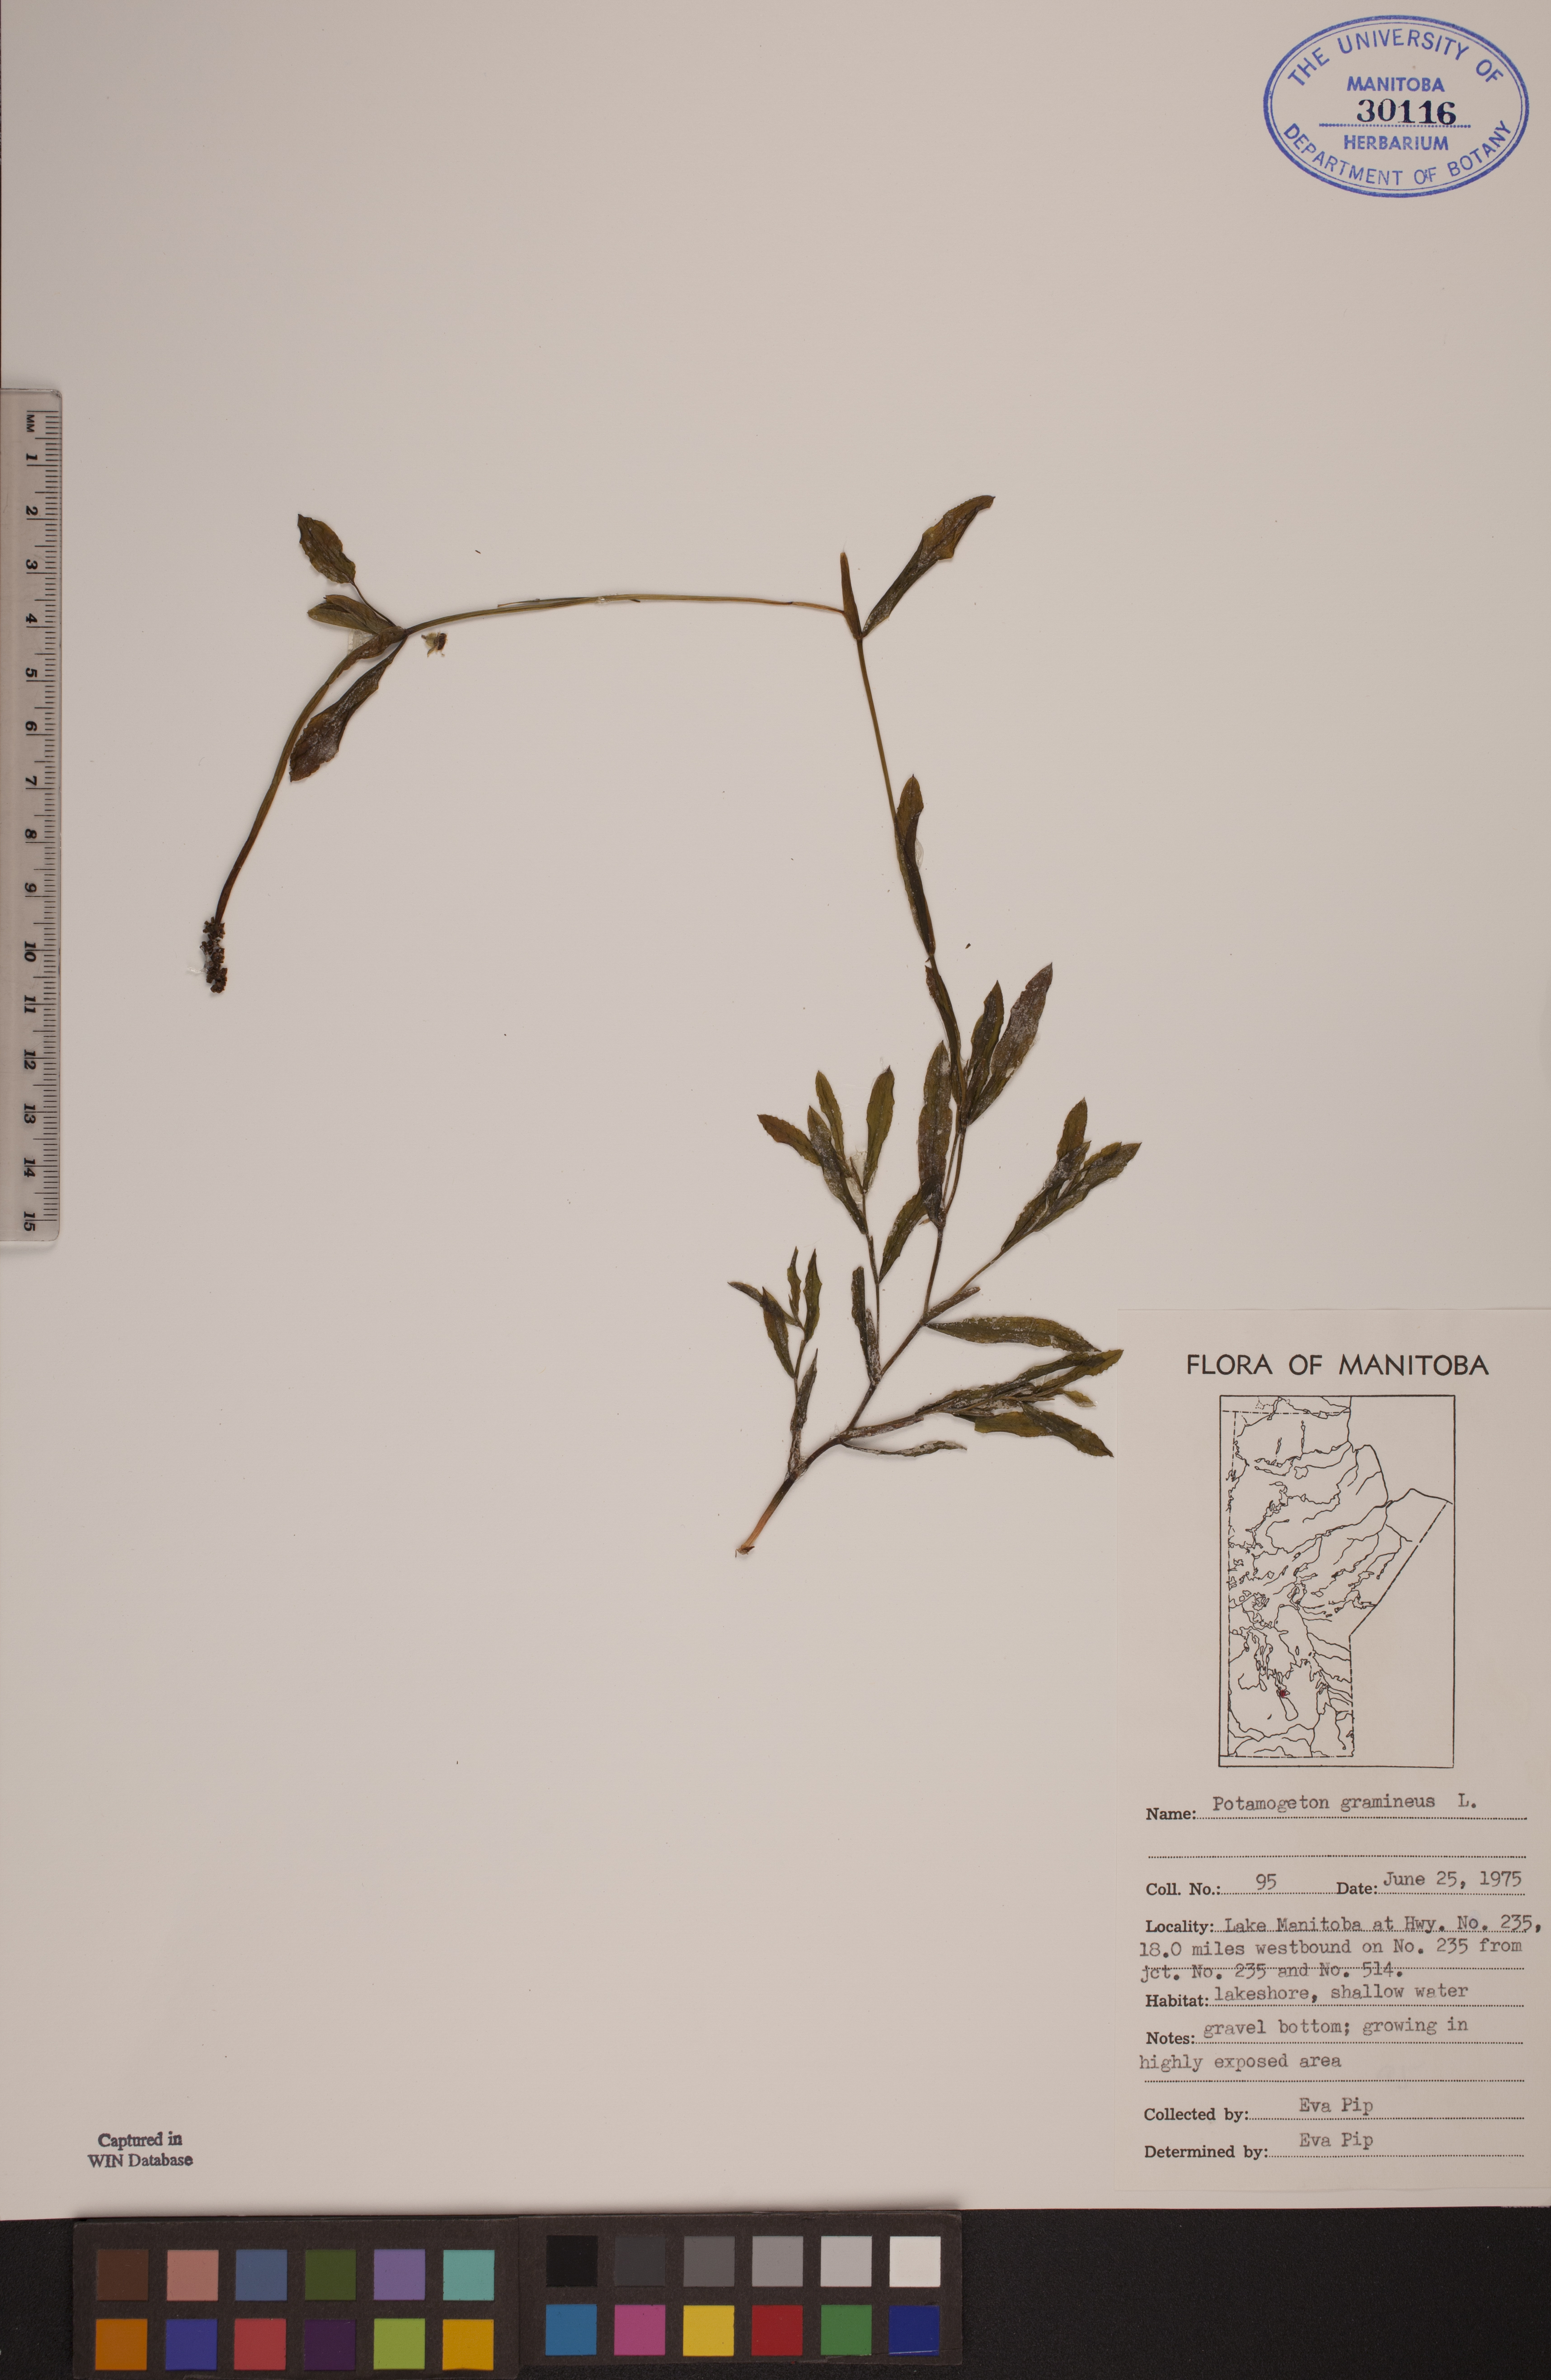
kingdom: Plantae
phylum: Tracheophyta
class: Liliopsida
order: Alismatales
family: Potamogetonaceae
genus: Potamogeton
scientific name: Potamogeton gramineus
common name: Various-leaved pondweed
